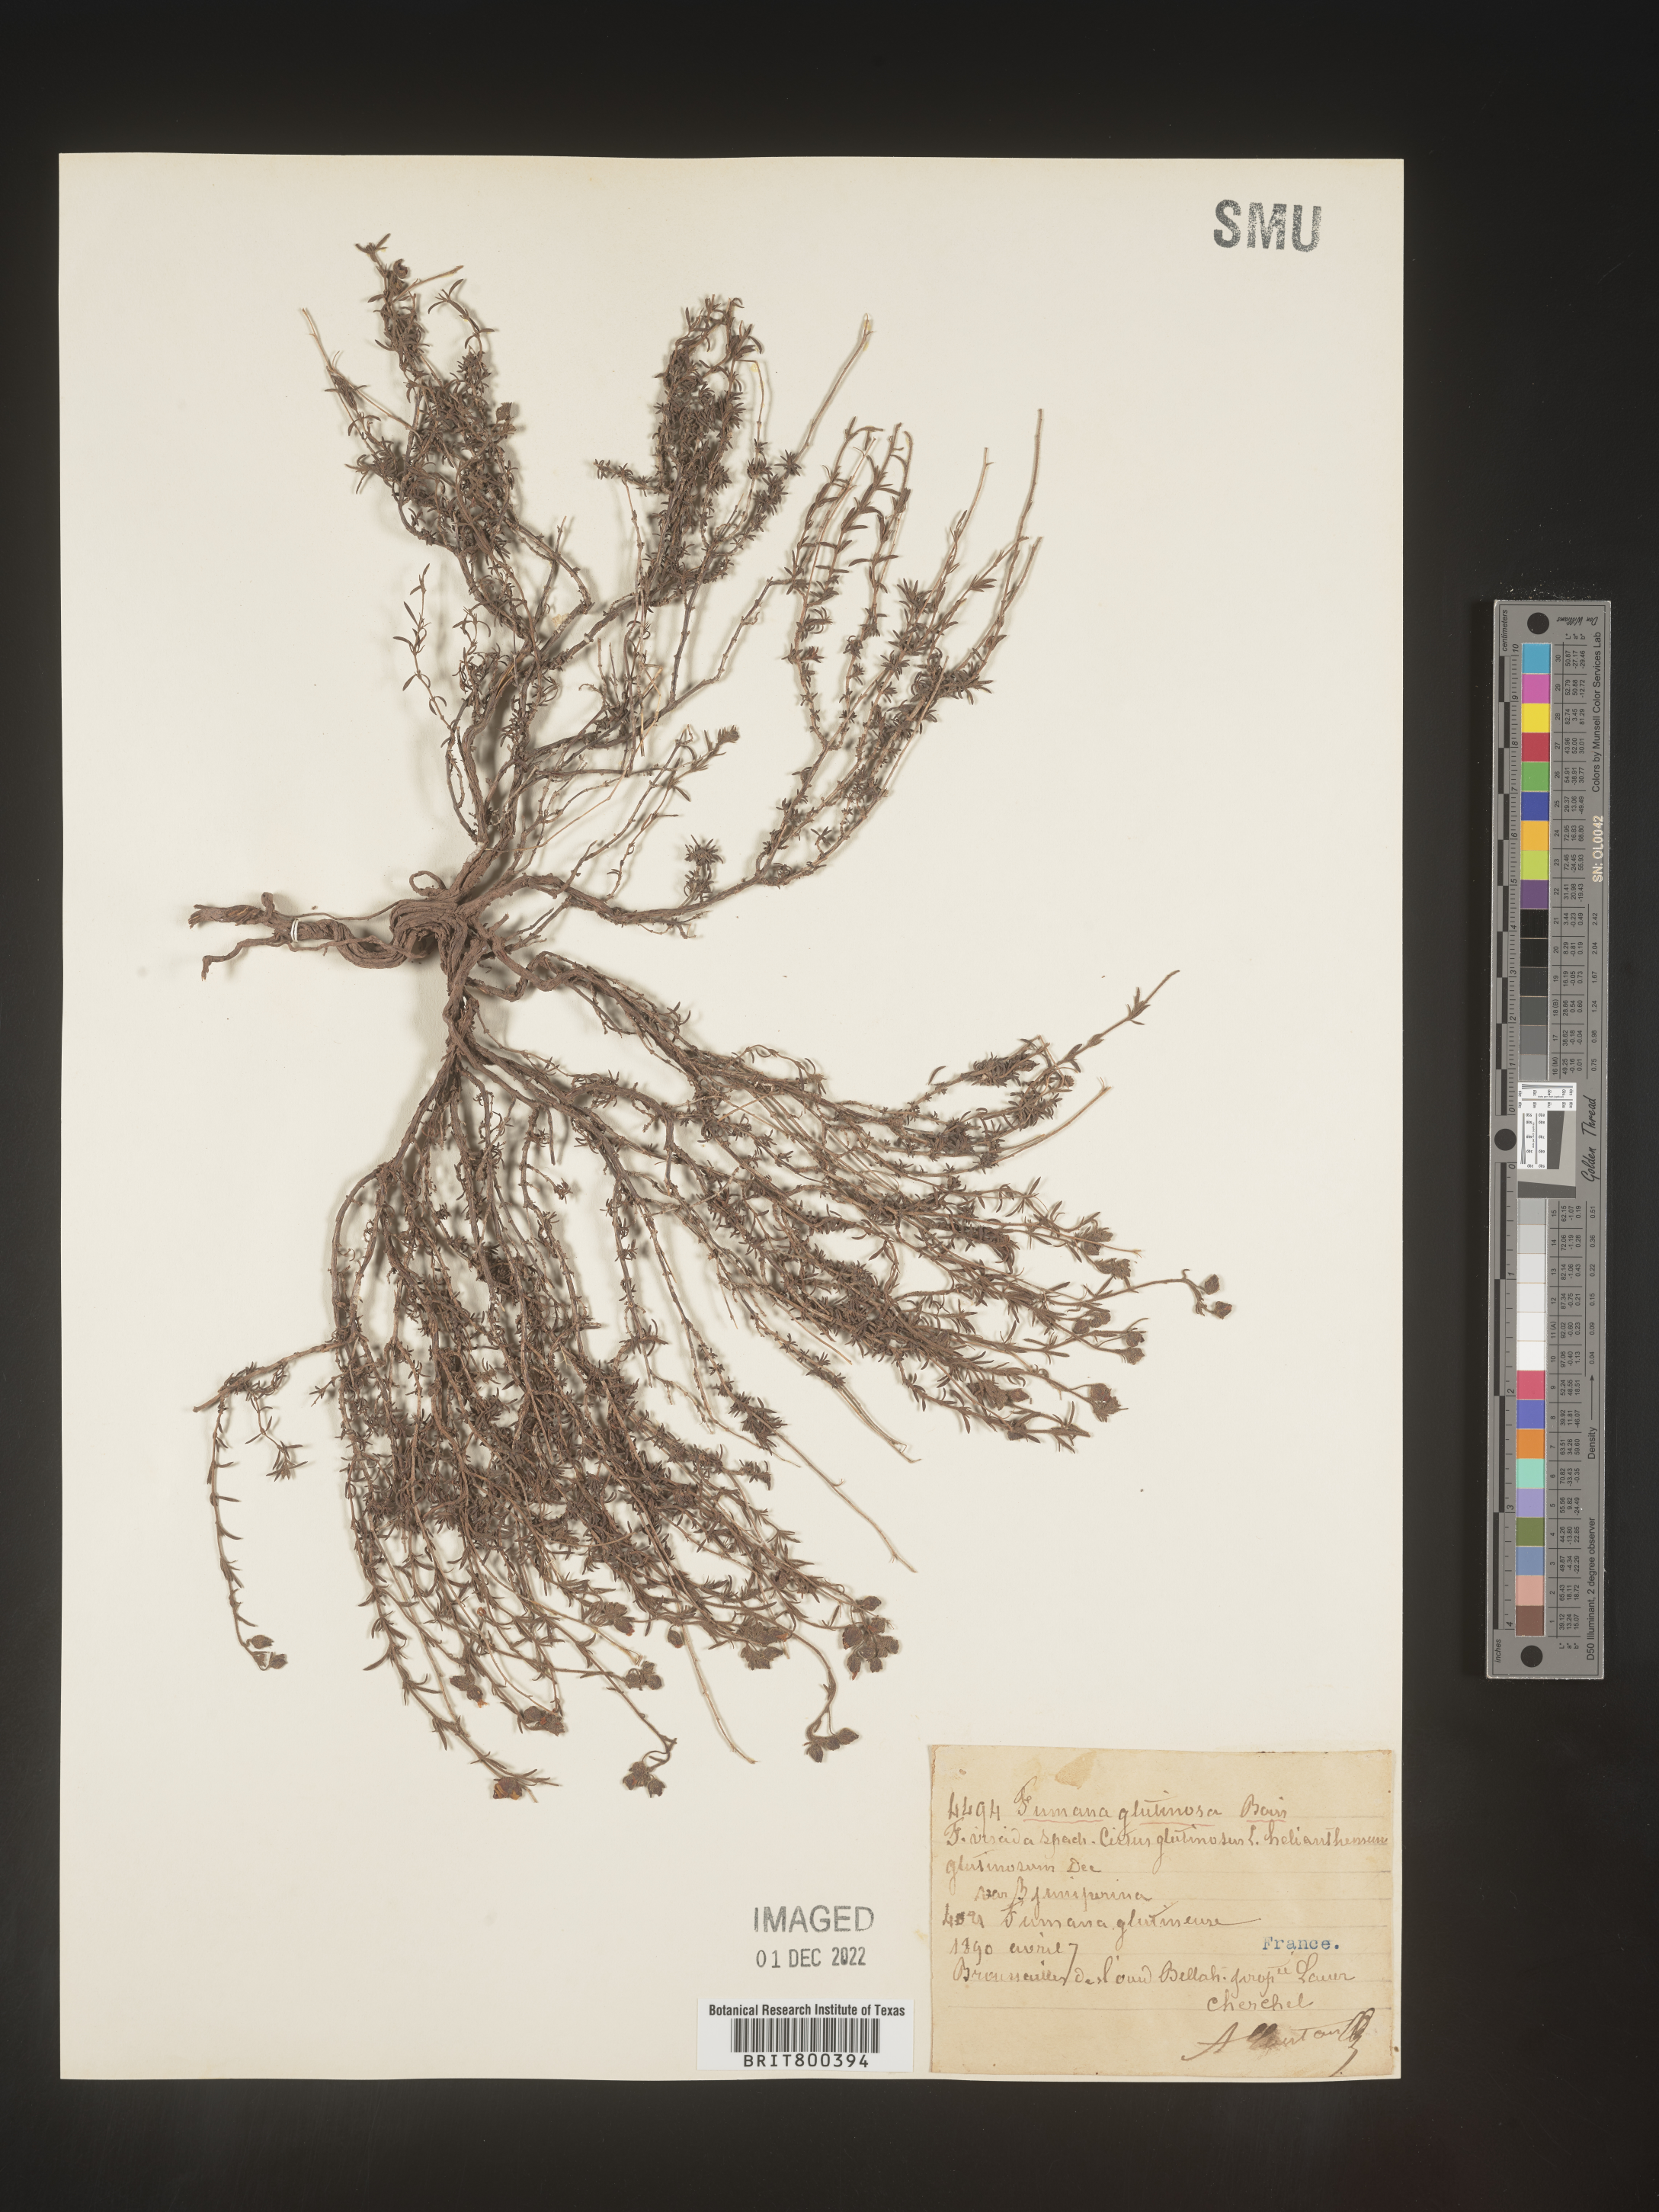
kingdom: Plantae
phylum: Tracheophyta
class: Magnoliopsida
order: Malvales
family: Cistaceae
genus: Fumana
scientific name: Fumana
